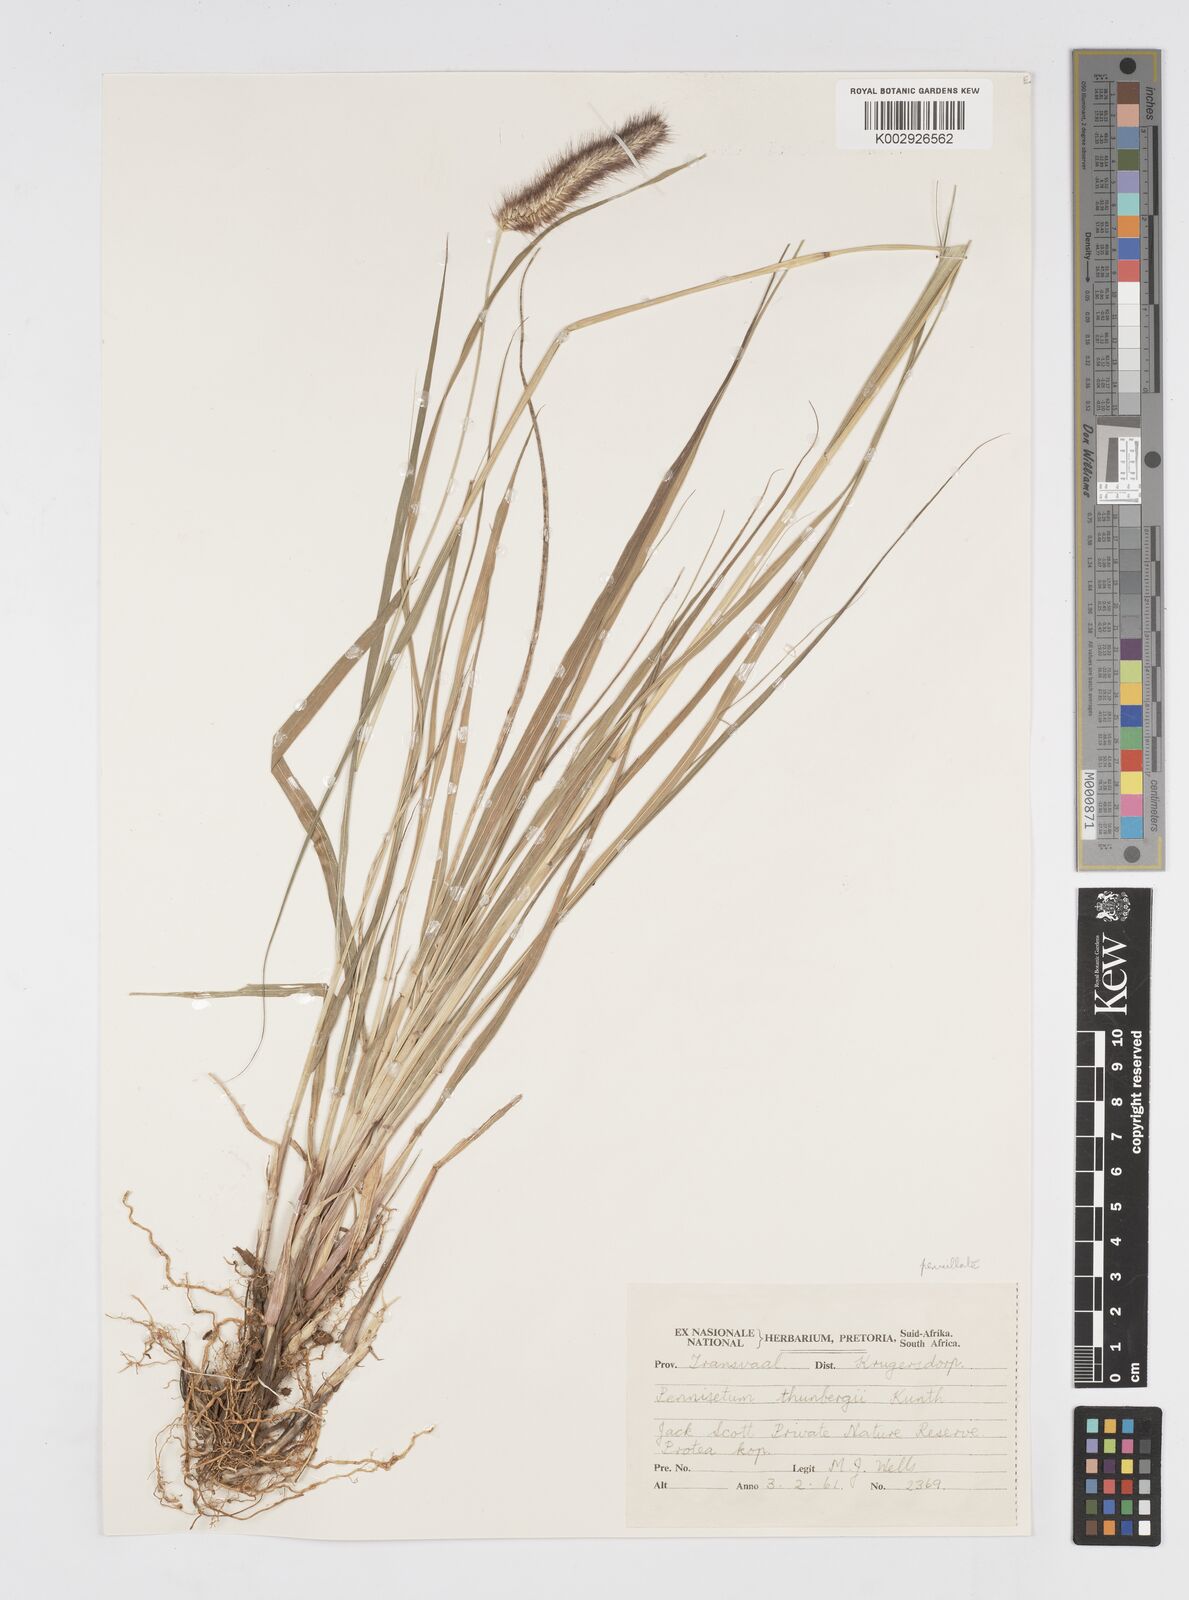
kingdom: Plantae
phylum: Tracheophyta
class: Liliopsida
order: Poales
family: Poaceae
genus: Cenchrus
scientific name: Cenchrus geniculatus
